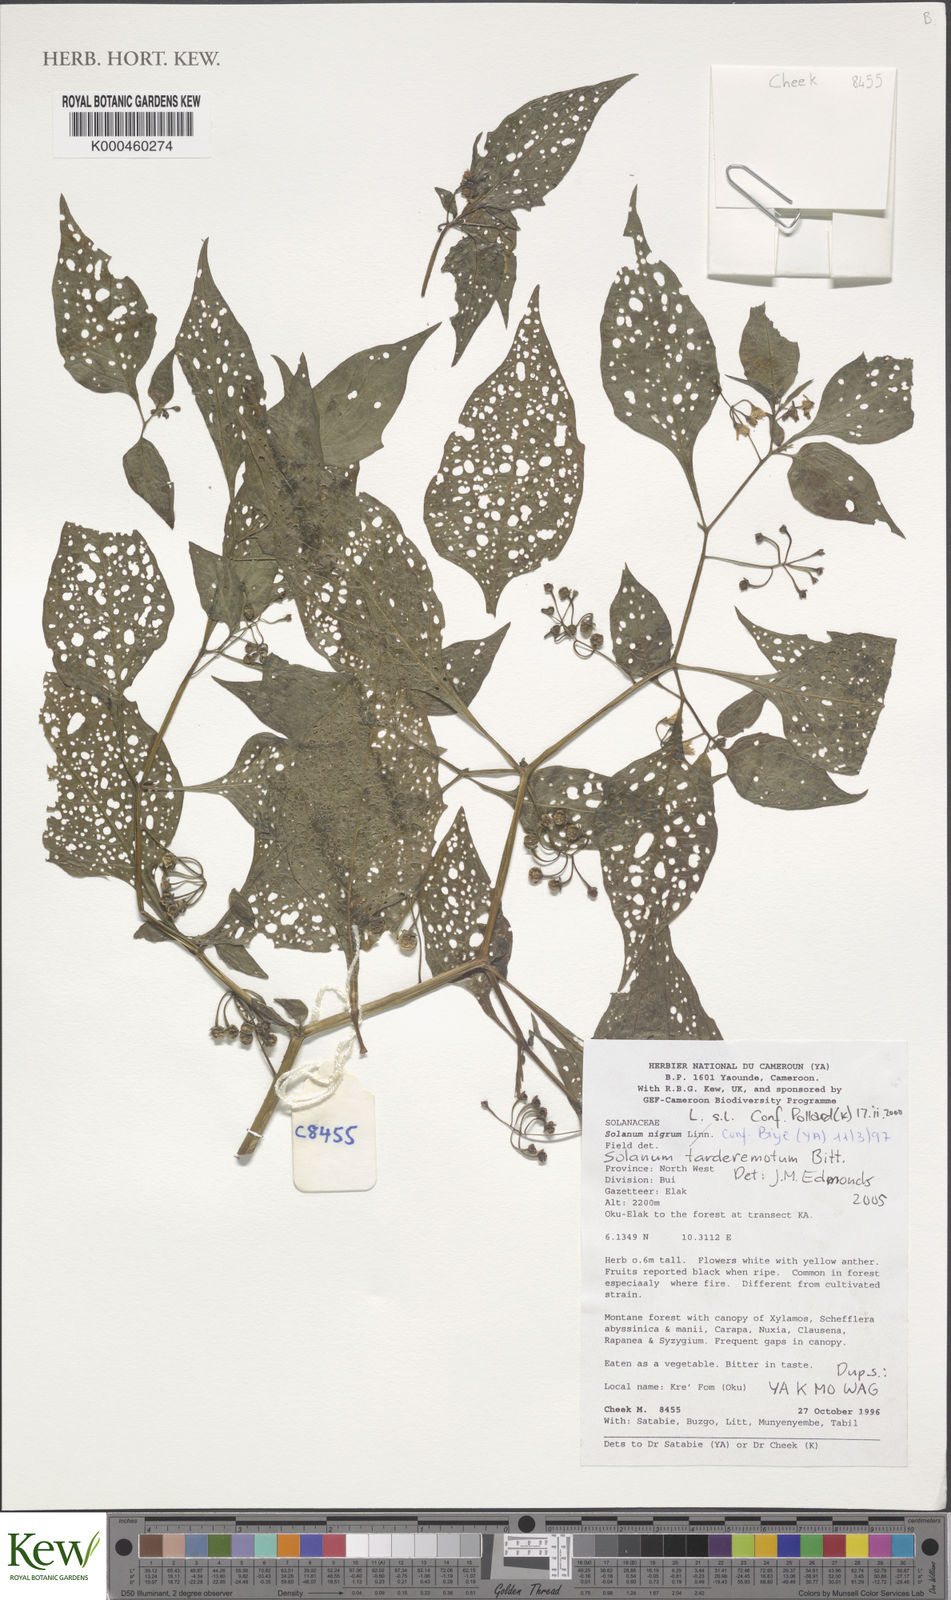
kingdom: Plantae
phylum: Tracheophyta
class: Magnoliopsida
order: Solanales
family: Solanaceae
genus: Solanum
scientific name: Solanum tarderemotum
